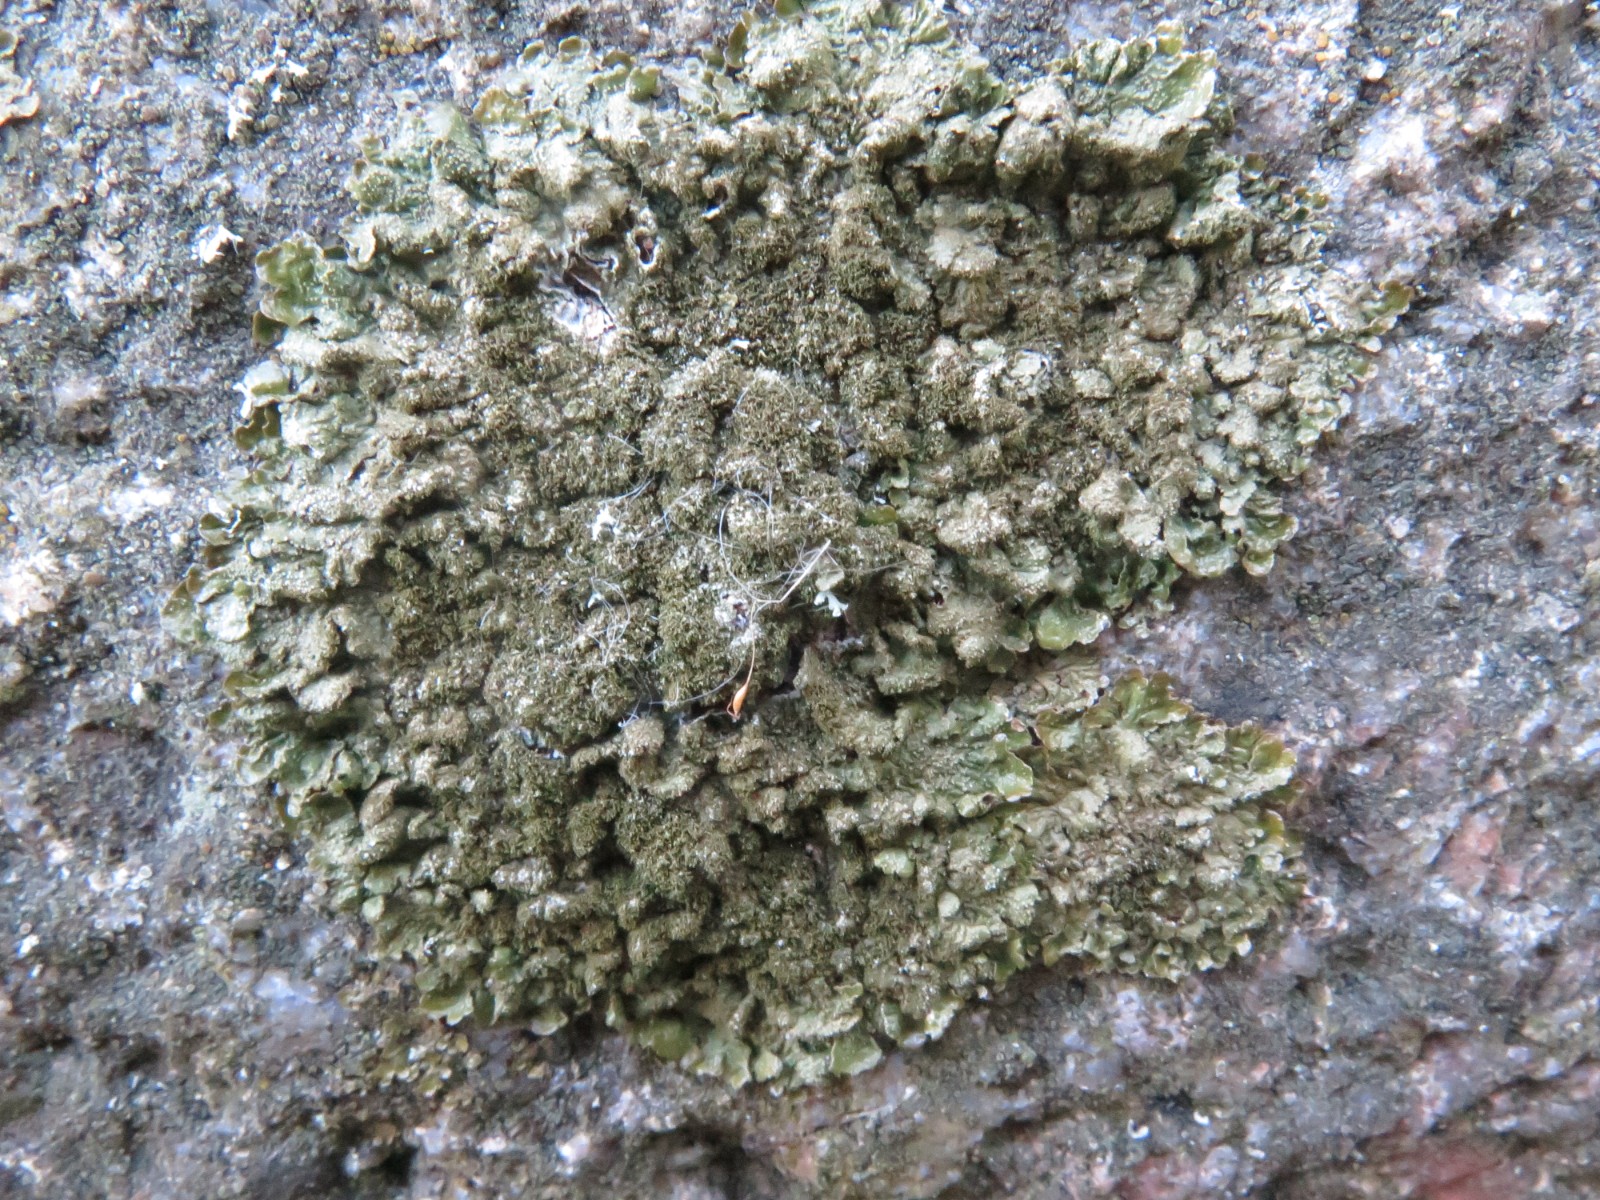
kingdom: Fungi
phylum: Ascomycota
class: Lecanoromycetes
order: Lecanorales
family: Parmeliaceae
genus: Melanelixia
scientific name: Melanelixia fuliginosa
